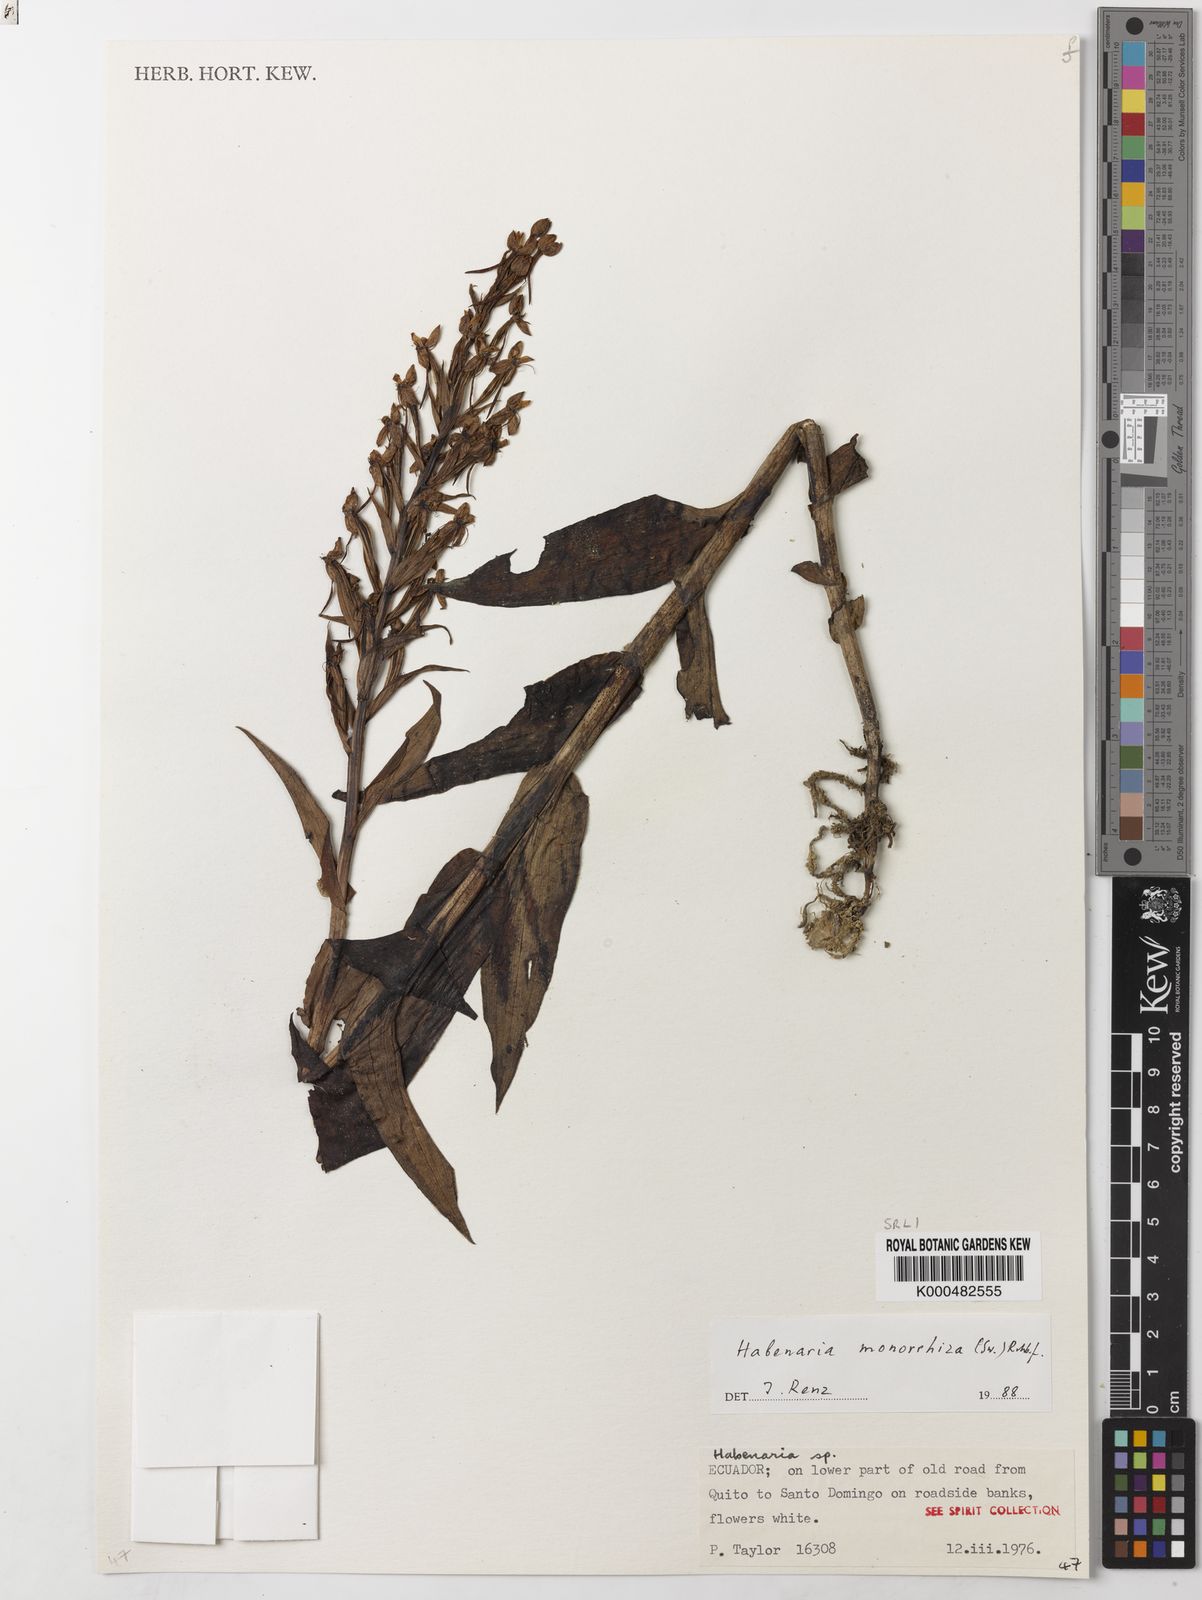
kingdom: Plantae
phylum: Tracheophyta
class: Liliopsida
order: Asparagales
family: Orchidaceae
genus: Habenaria
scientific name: Habenaria monorrhiza
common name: Tropical bog orchid
